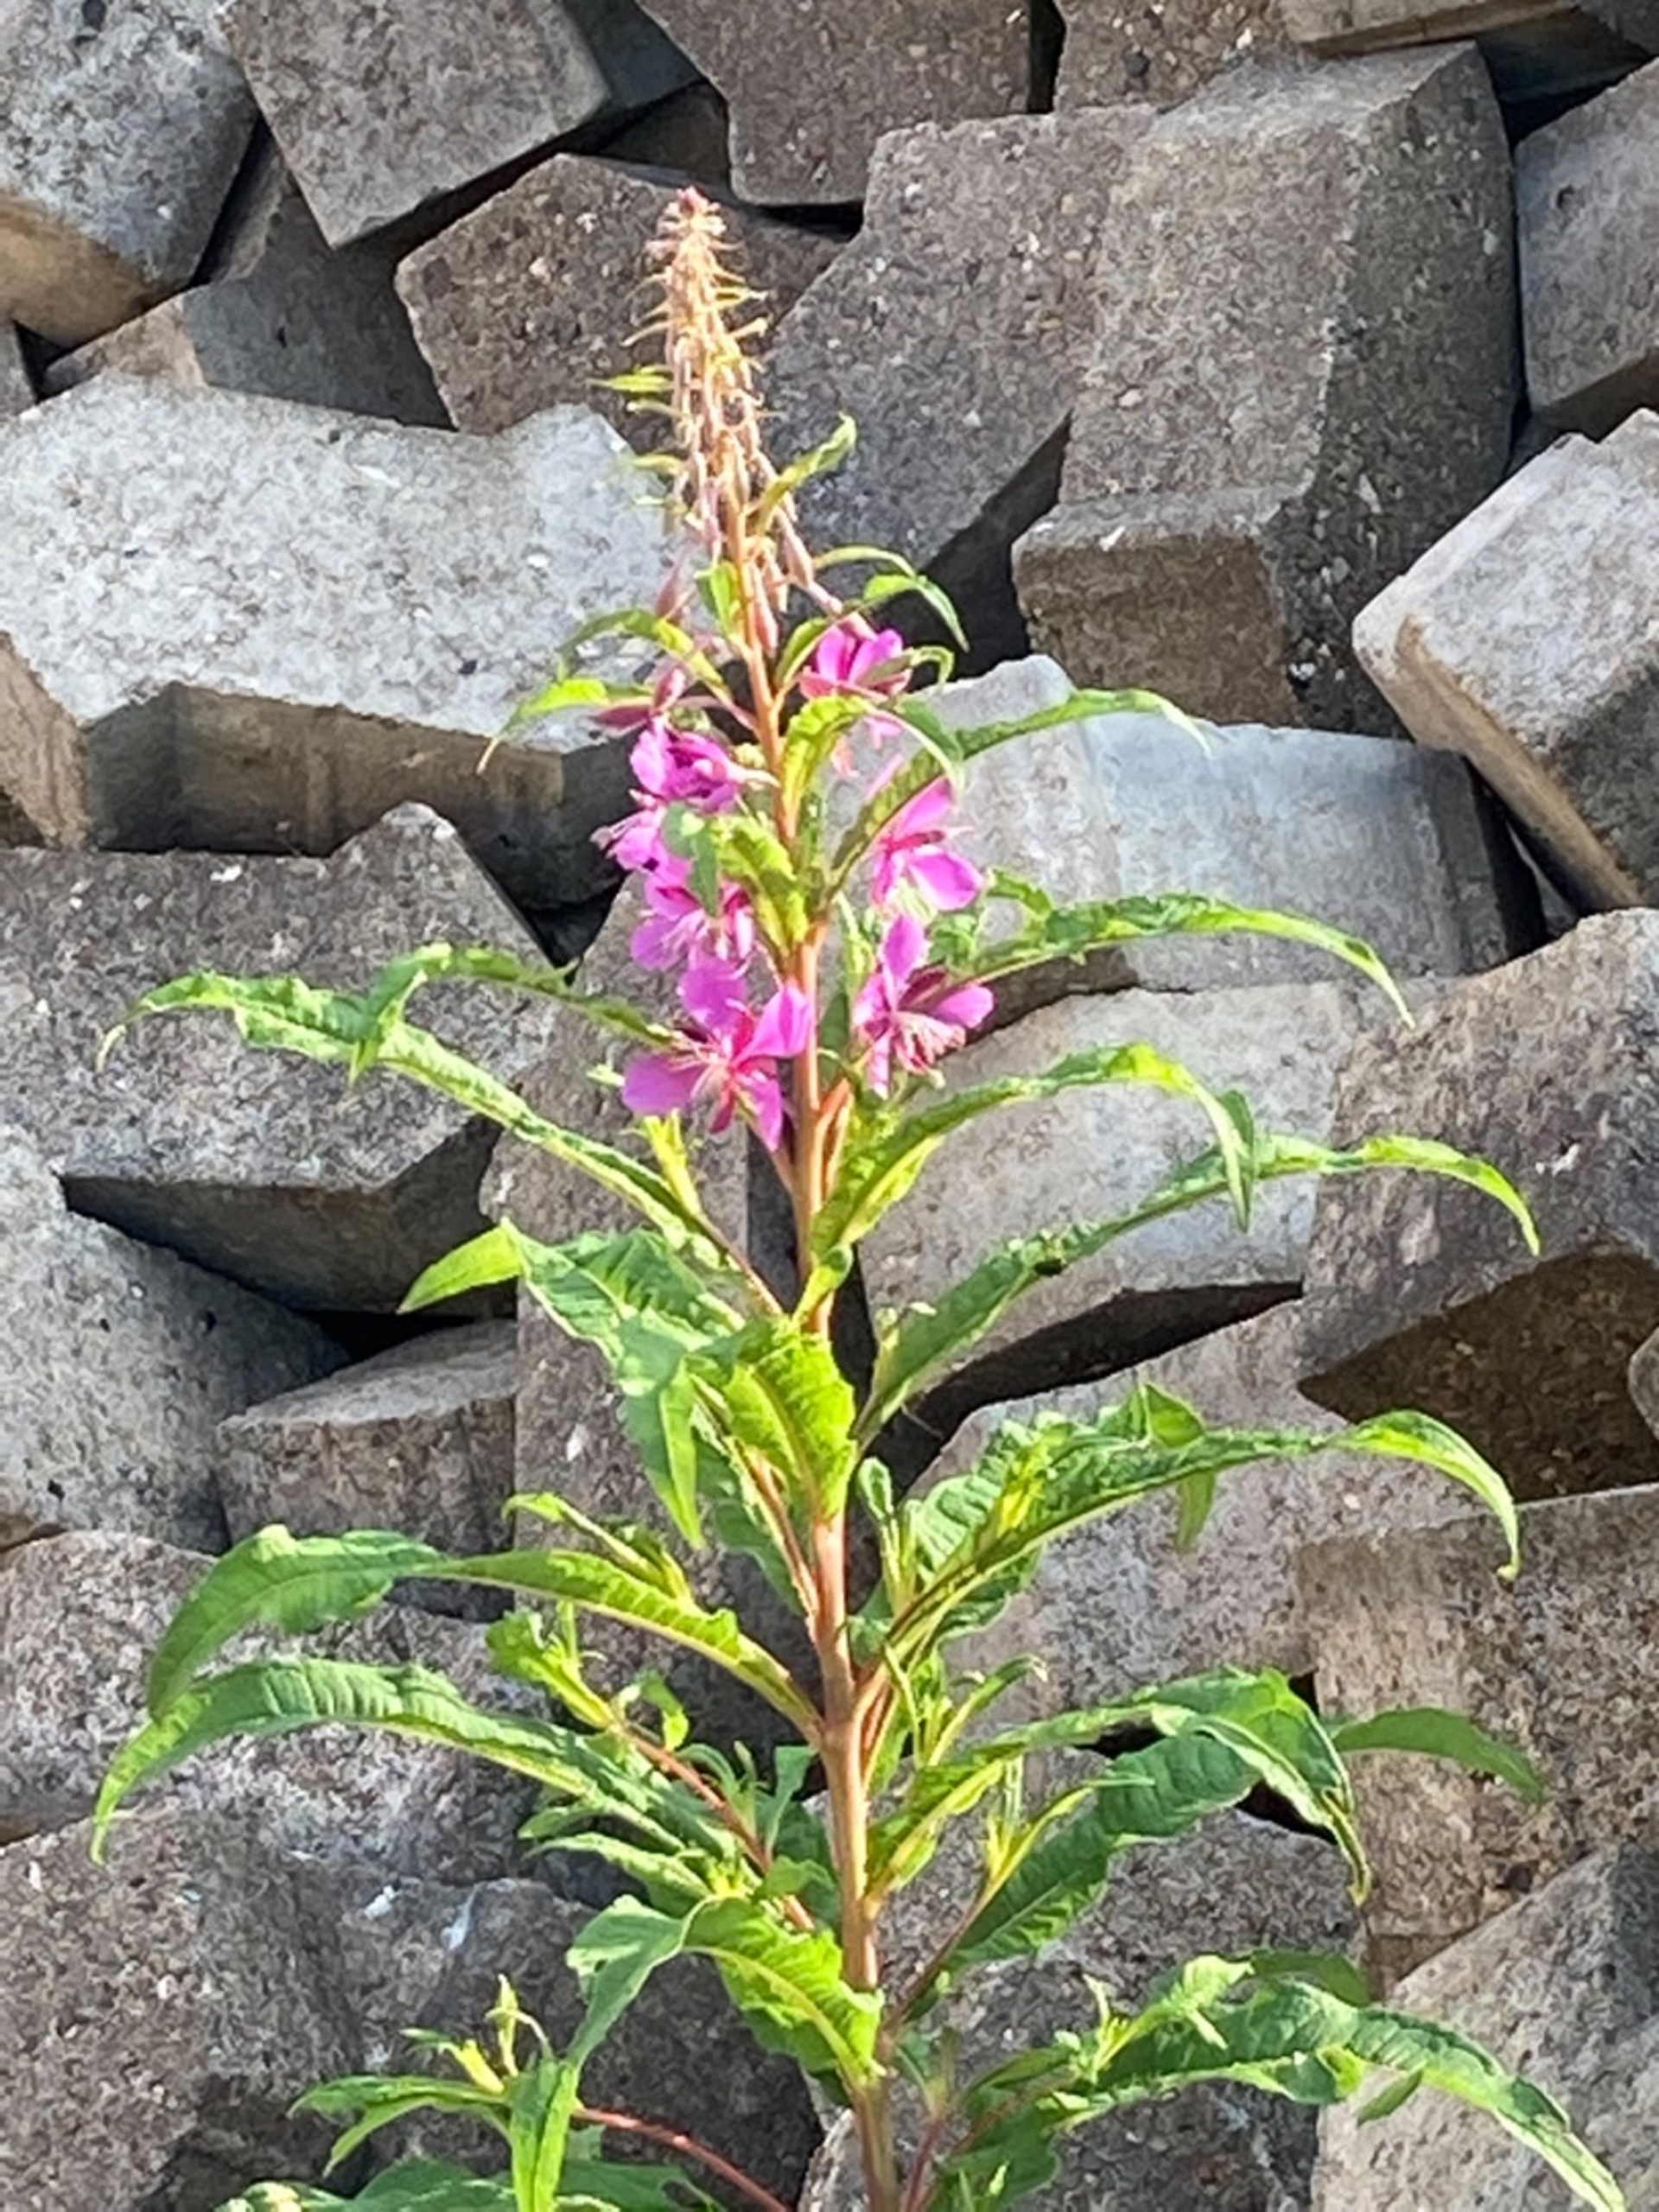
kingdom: Plantae
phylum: Tracheophyta
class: Magnoliopsida
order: Myrtales
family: Onagraceae
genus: Chamaenerion
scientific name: Chamaenerion angustifolium
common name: Gederams
